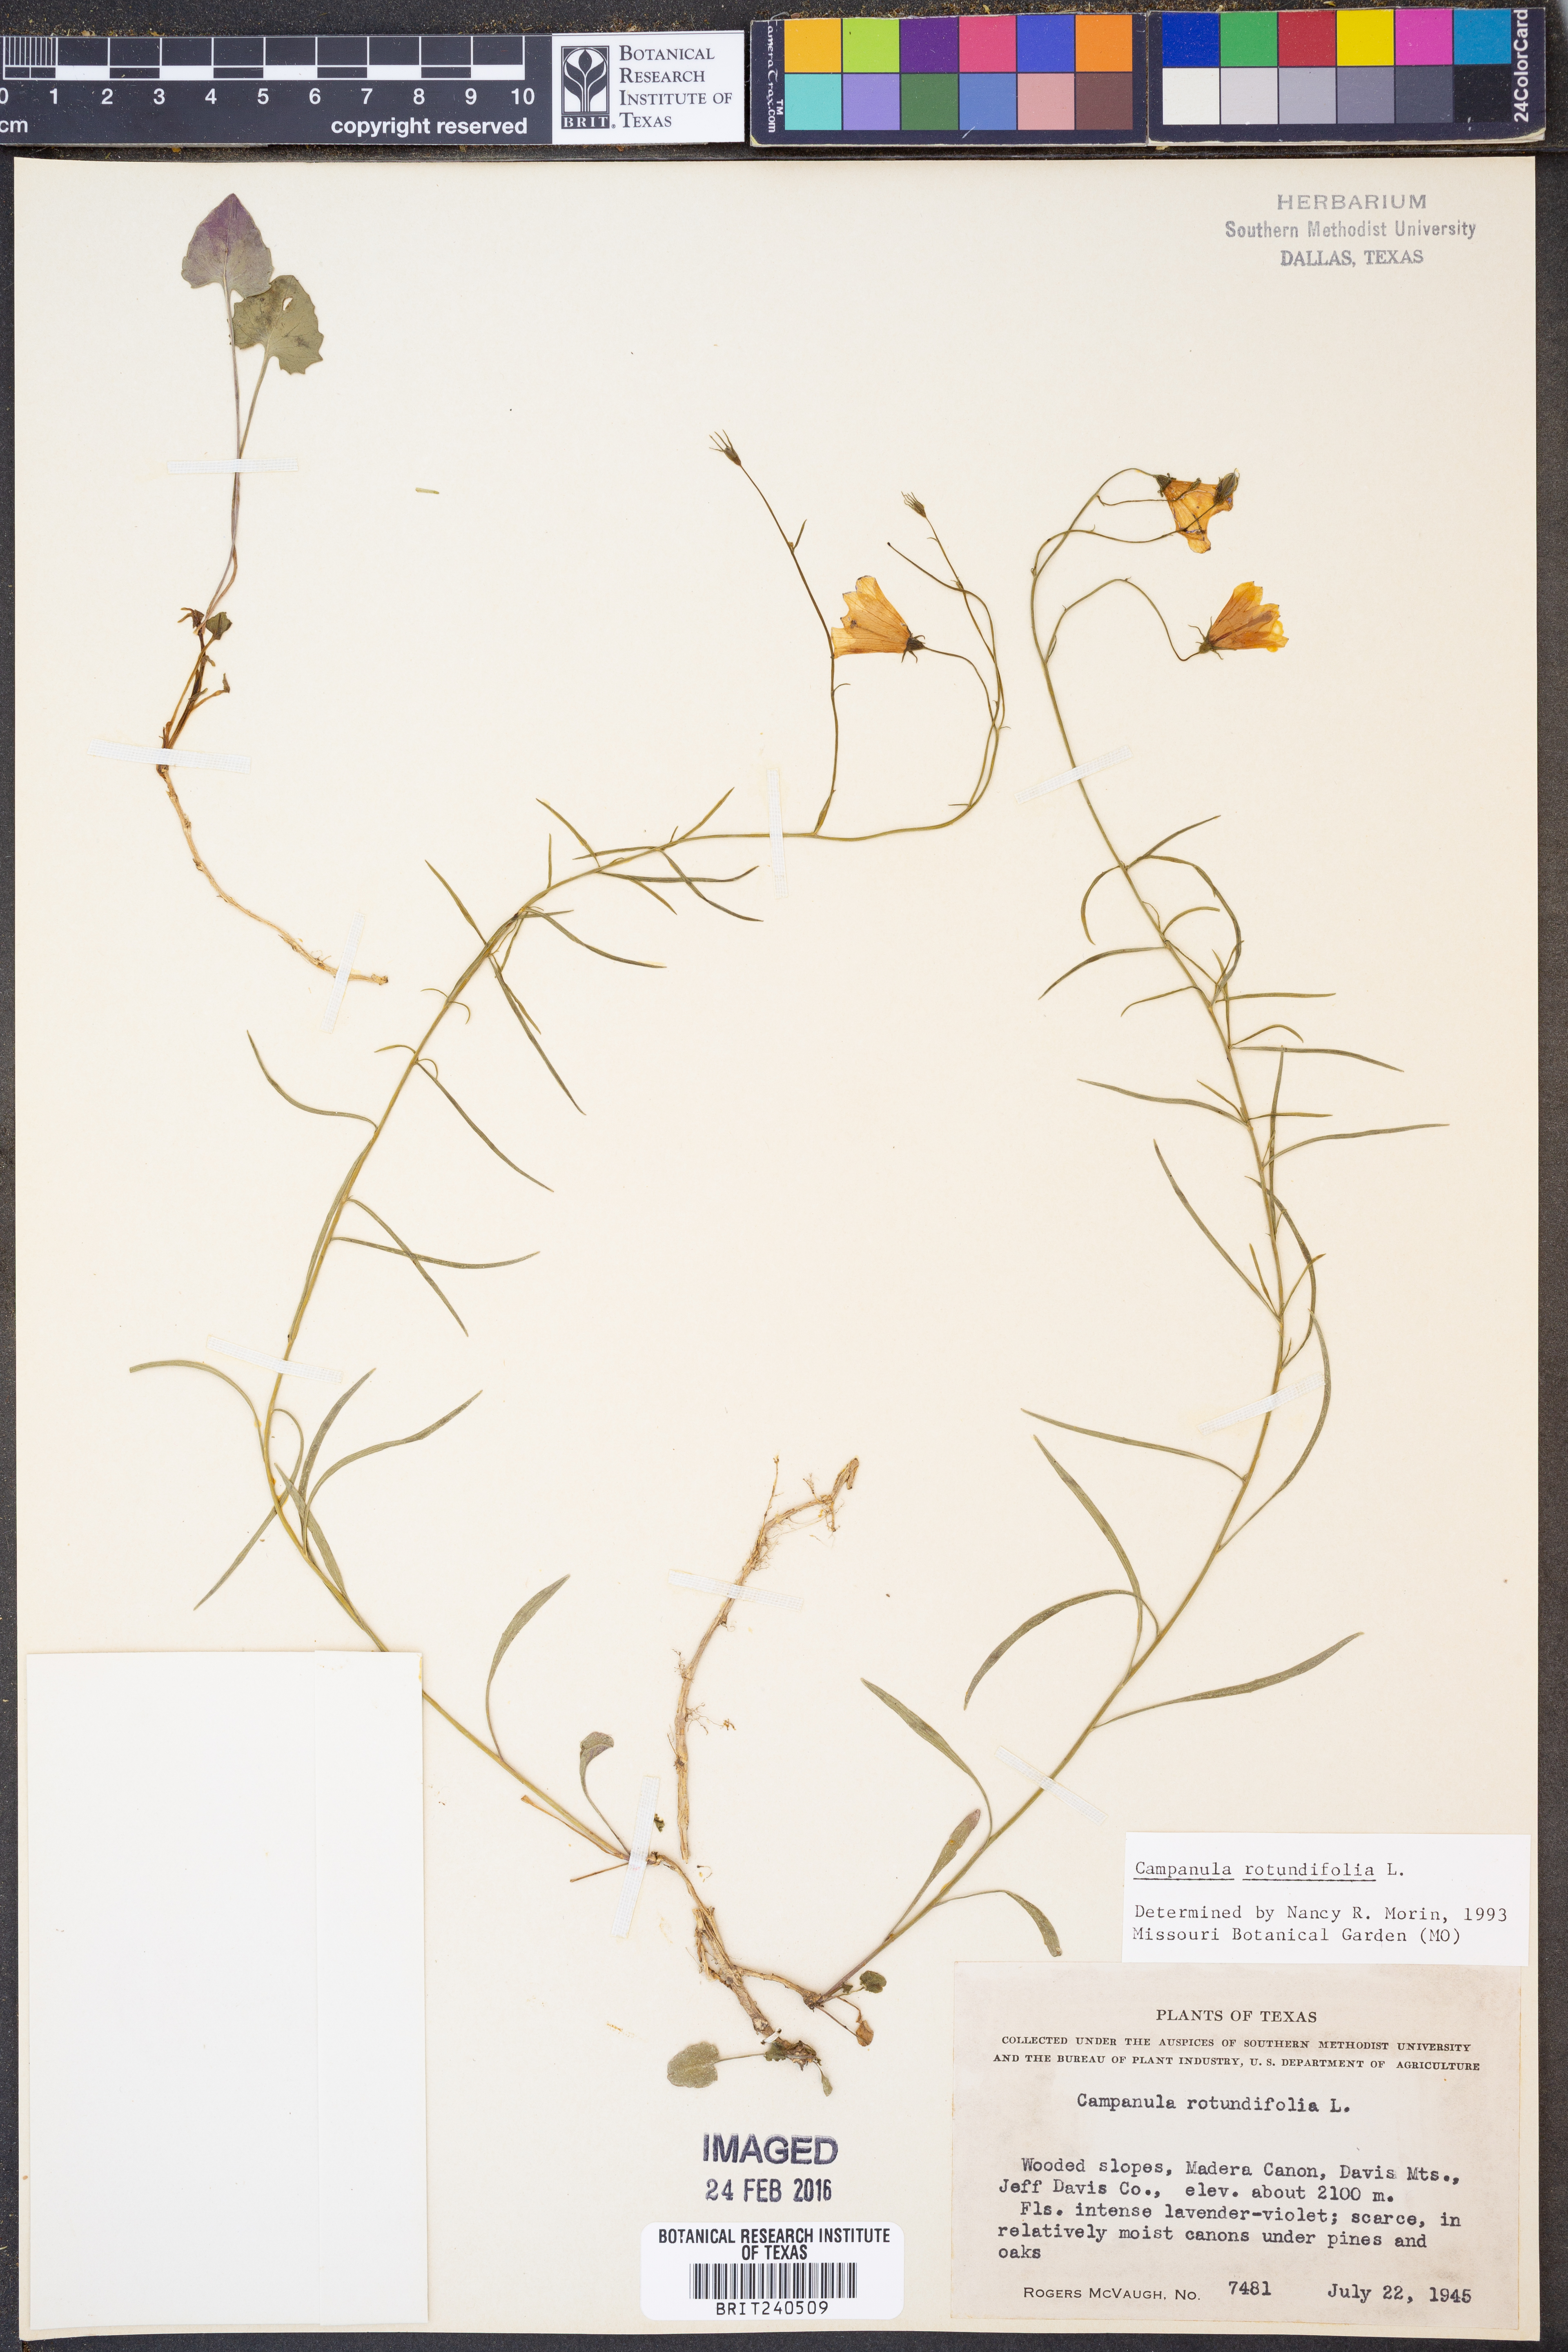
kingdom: Plantae
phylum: Tracheophyta
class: Magnoliopsida
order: Asterales
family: Campanulaceae
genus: Campanula
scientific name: Campanula rotundifolia
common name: Harebell
